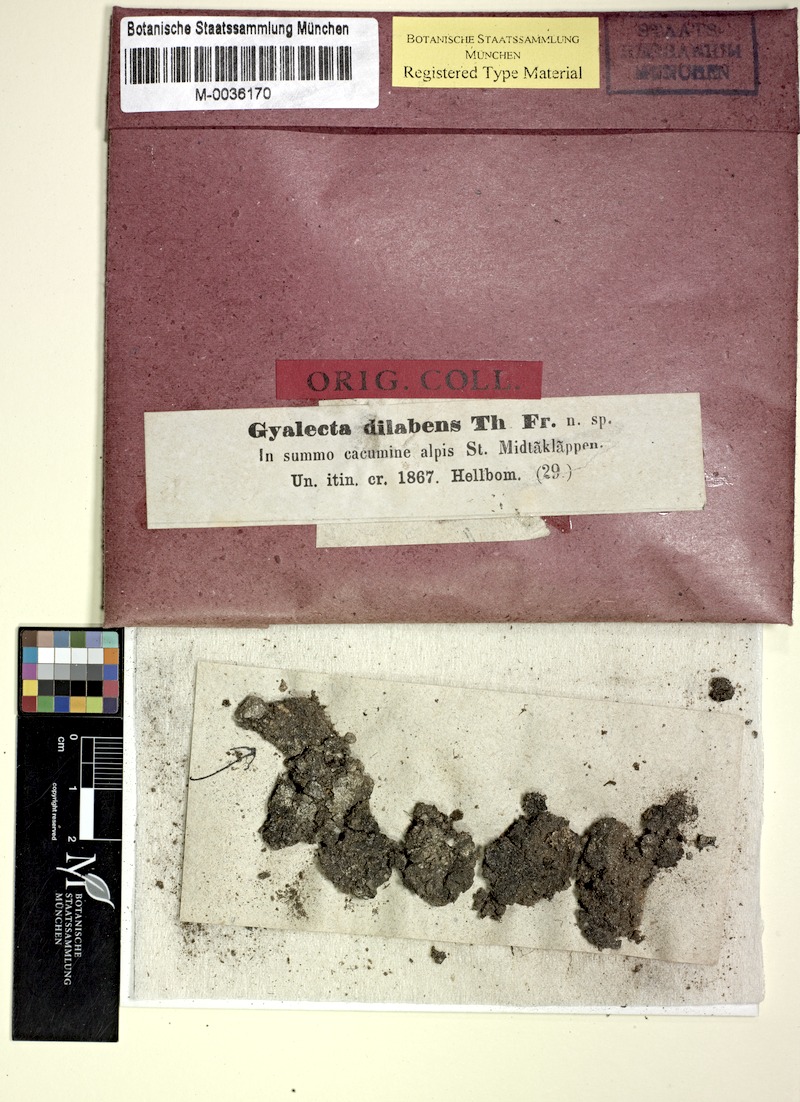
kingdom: Fungi
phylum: Ascomycota
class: Lecanoromycetes
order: Ostropales
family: Graphidaceae
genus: Gyalidea
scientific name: Gyalidea scutellaris
